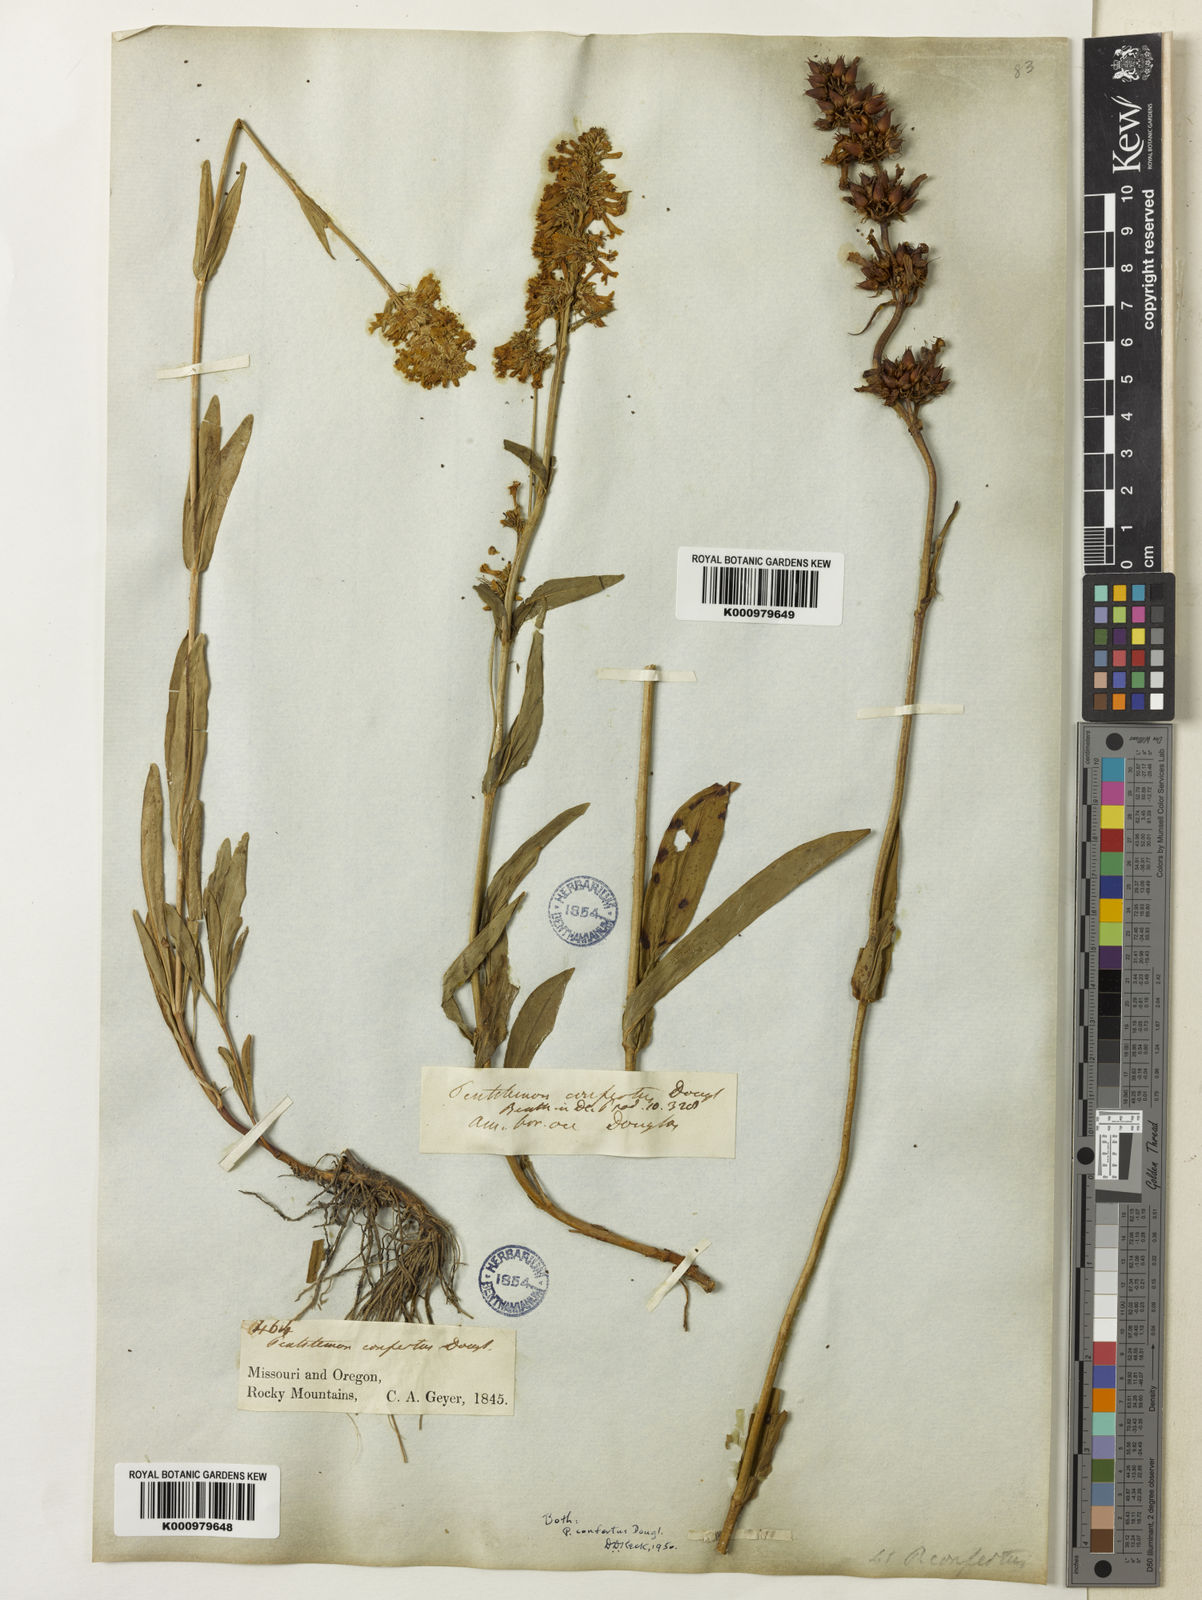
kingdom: Plantae
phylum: Tracheophyta
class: Magnoliopsida
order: Lamiales
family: Plantaginaceae
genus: Penstemon
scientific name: Penstemon
